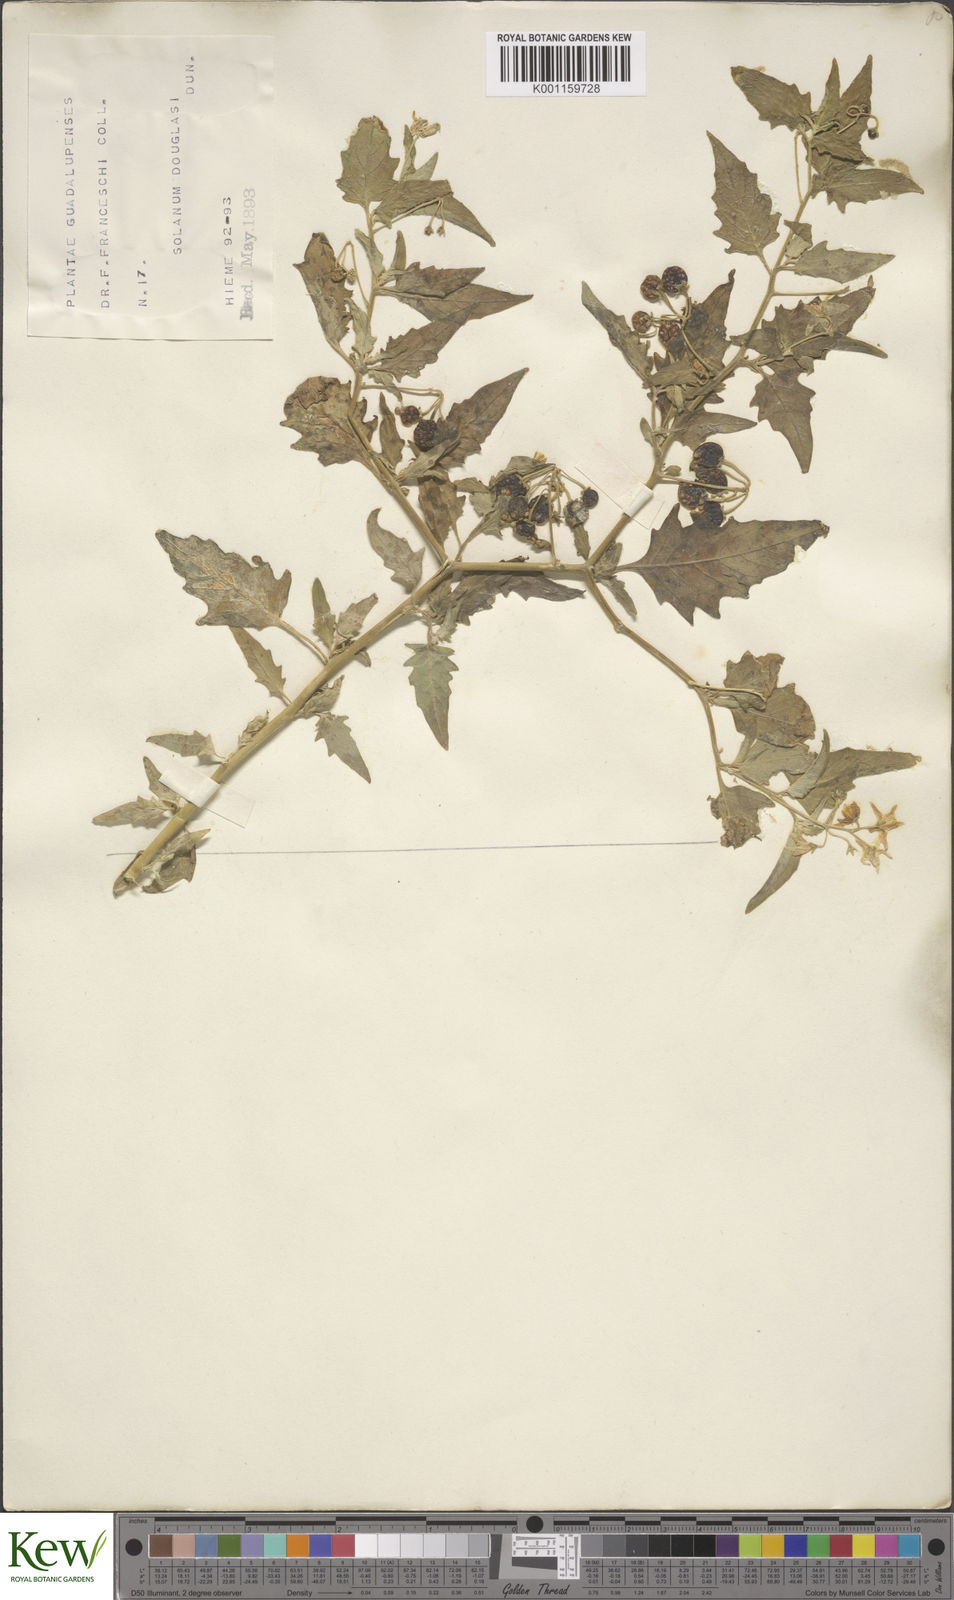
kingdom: Plantae
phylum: Tracheophyta
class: Magnoliopsida
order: Solanales
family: Solanaceae
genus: Solanum
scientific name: Solanum douglasii
